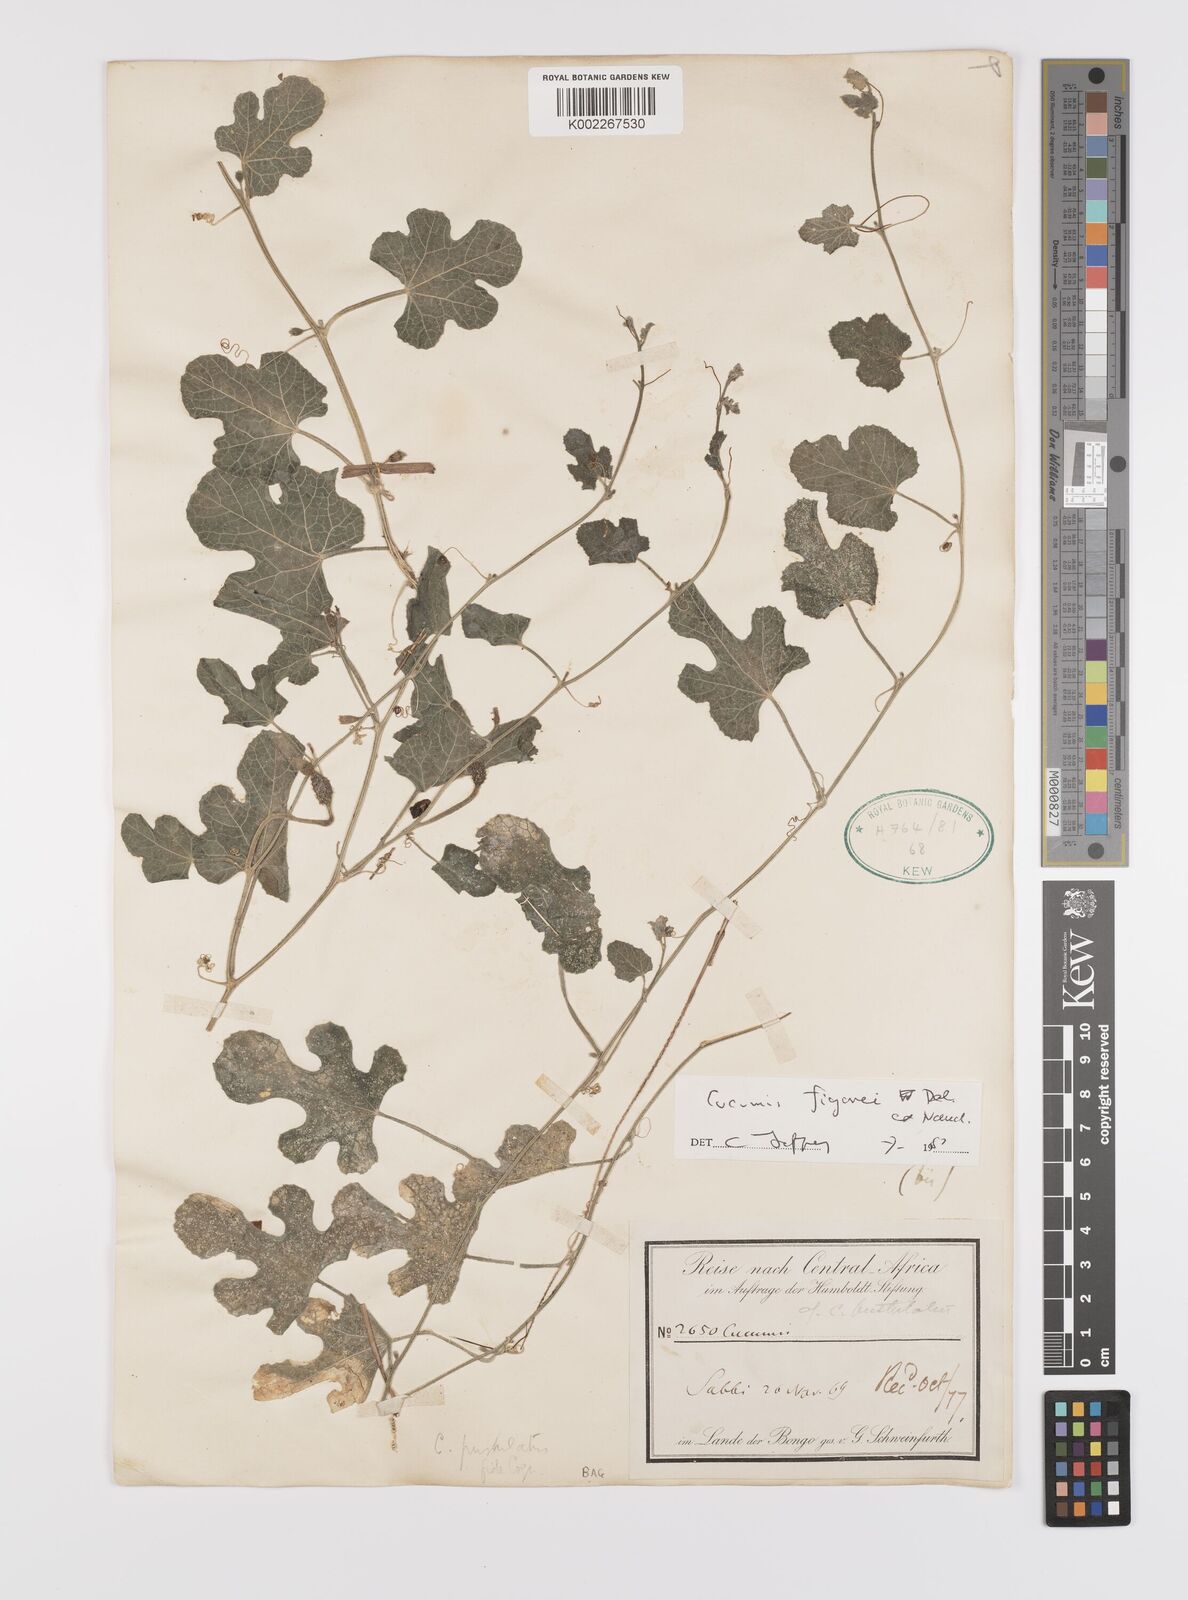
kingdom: Plantae
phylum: Tracheophyta
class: Magnoliopsida
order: Cucurbitales
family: Cucurbitaceae
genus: Cucumis
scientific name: Cucumis pustulatus
